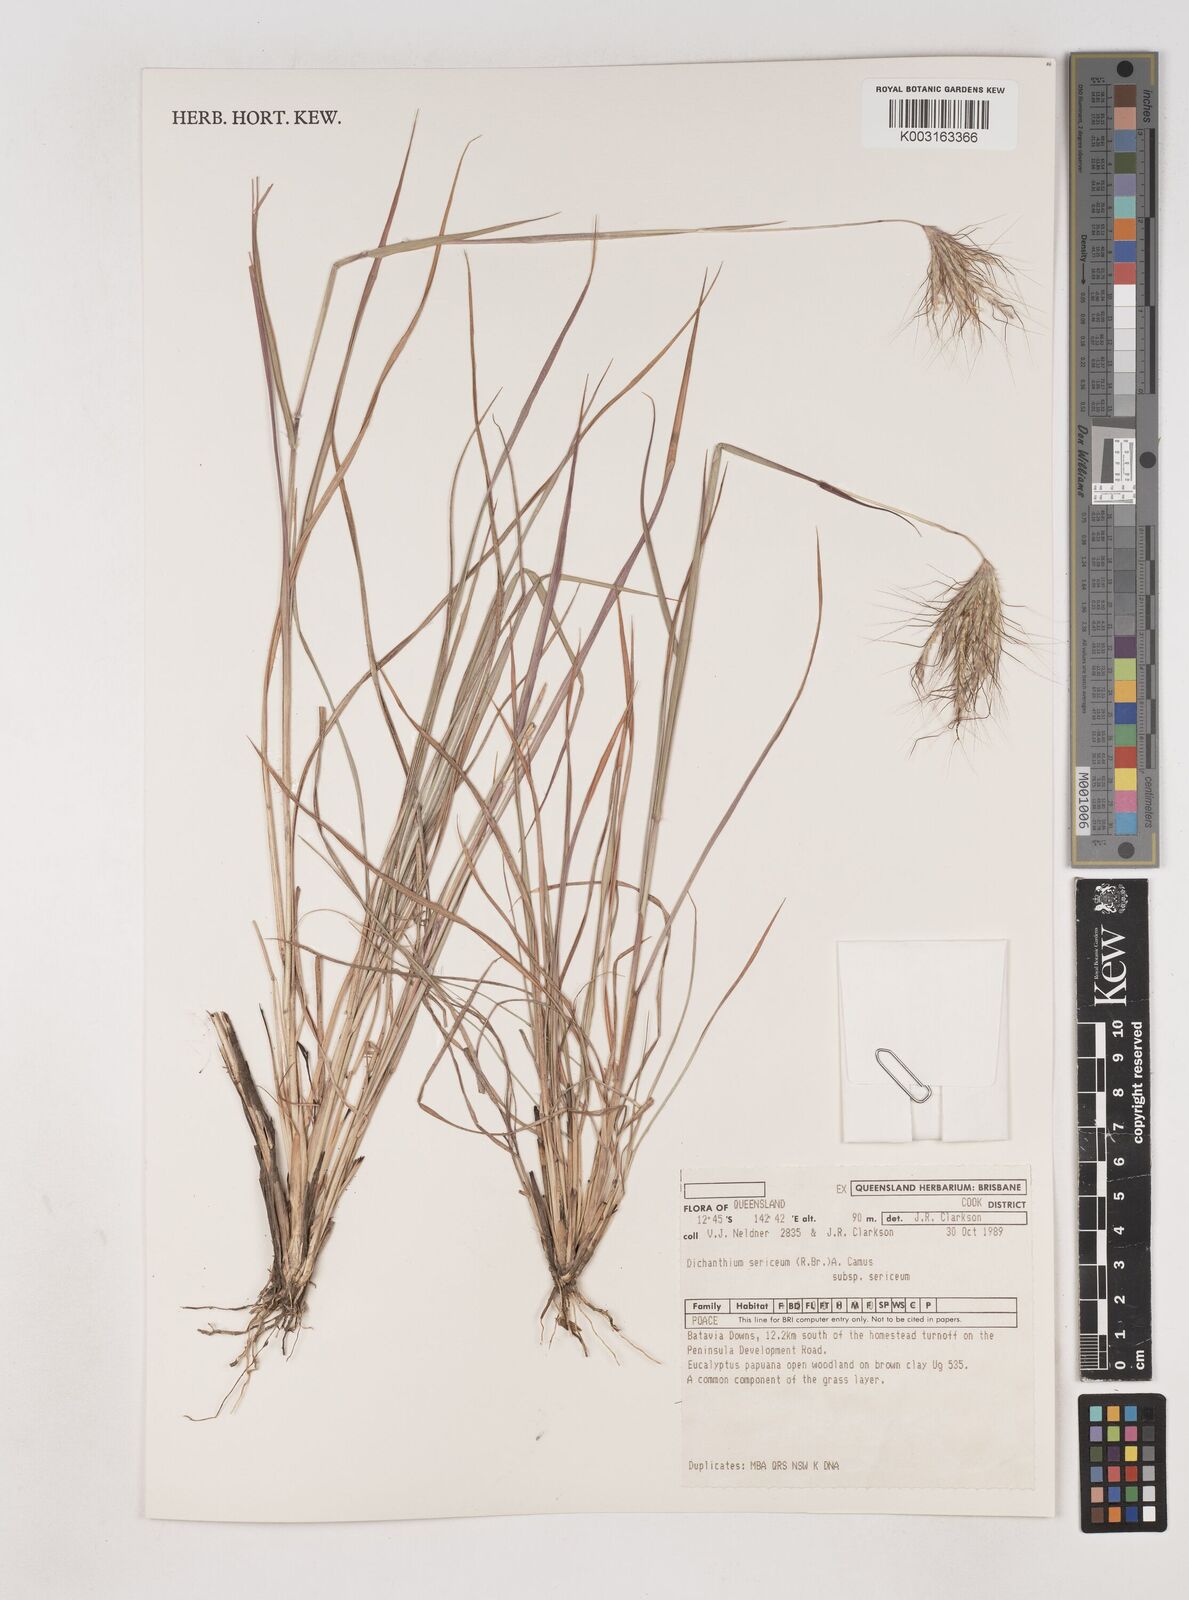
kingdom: Plantae
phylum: Tracheophyta
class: Liliopsida
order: Poales
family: Poaceae
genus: Dichanthium
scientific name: Dichanthium sericeum
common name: Silky bluestem
